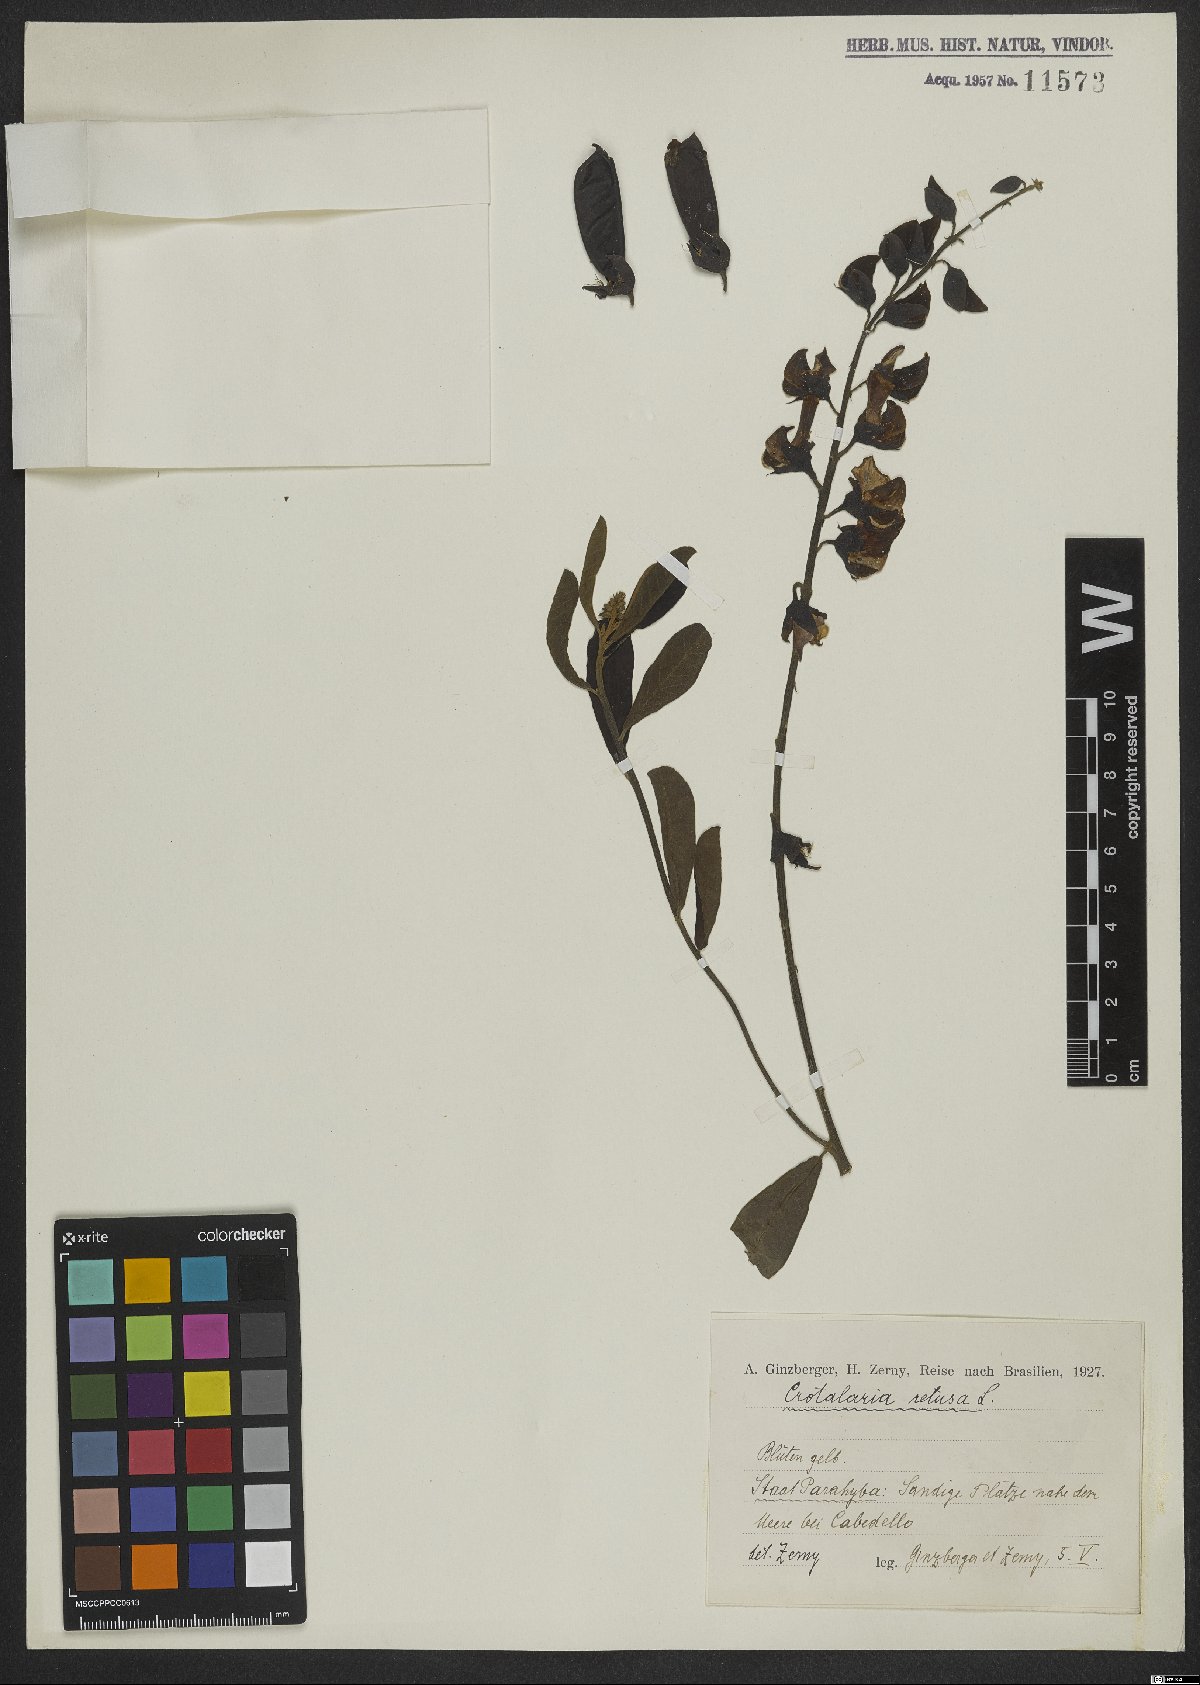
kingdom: Plantae
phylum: Tracheophyta
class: Magnoliopsida
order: Fabales
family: Fabaceae
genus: Crotalaria
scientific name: Crotalaria retusa
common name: Rattleweed
